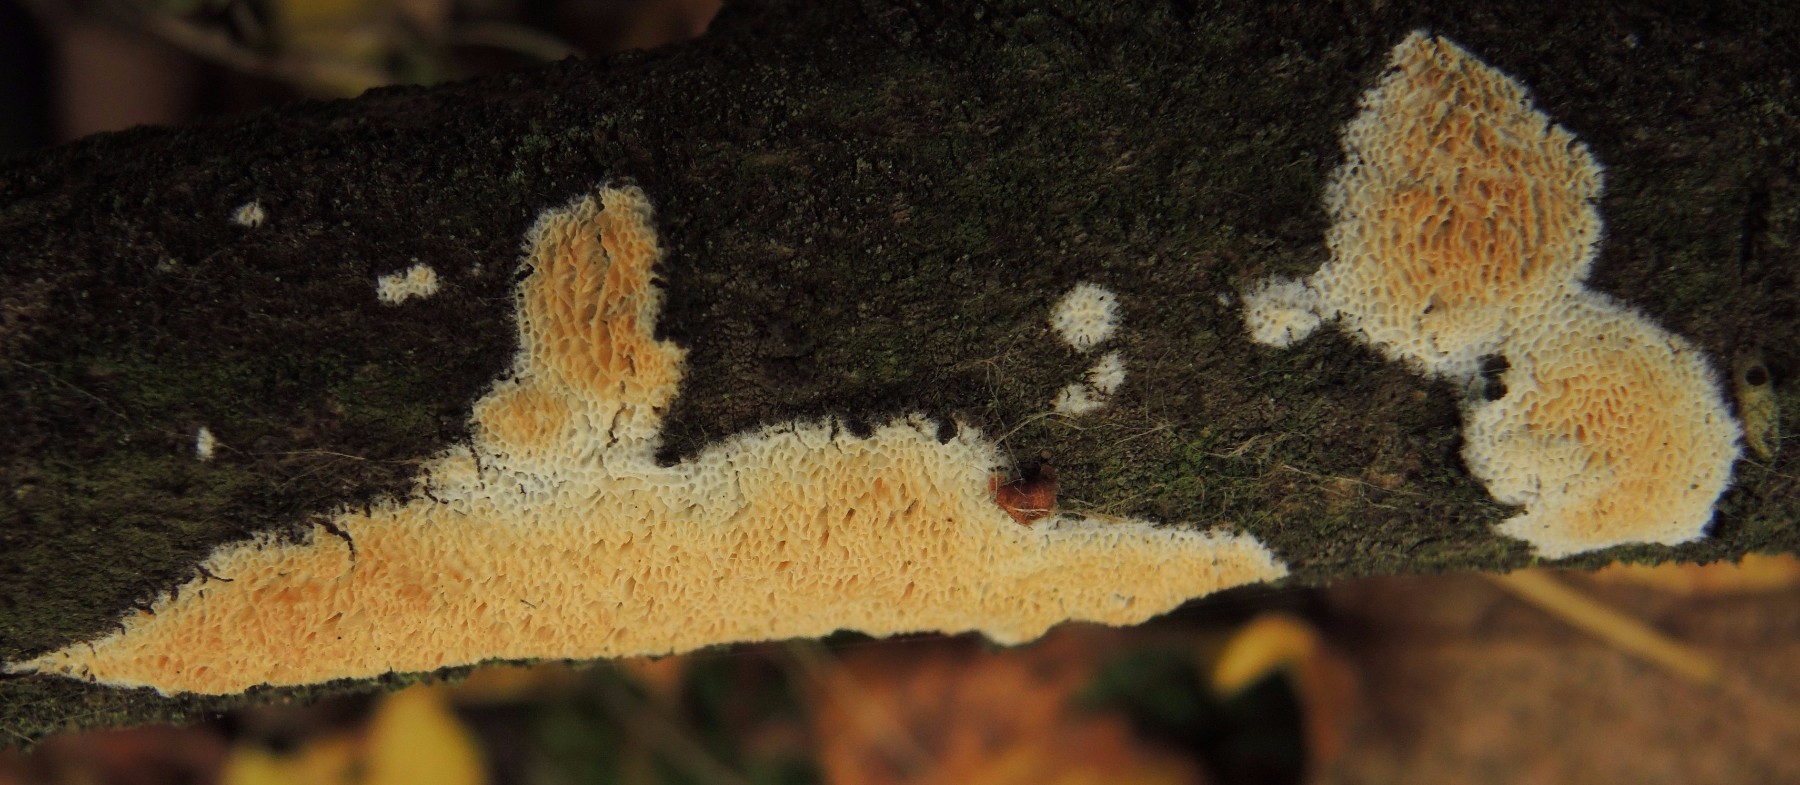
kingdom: Fungi
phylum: Basidiomycota
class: Agaricomycetes
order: Polyporales
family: Steccherinaceae
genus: Niemelaea
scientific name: Niemelaea consobrina
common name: brunlig pastelporesvamp
